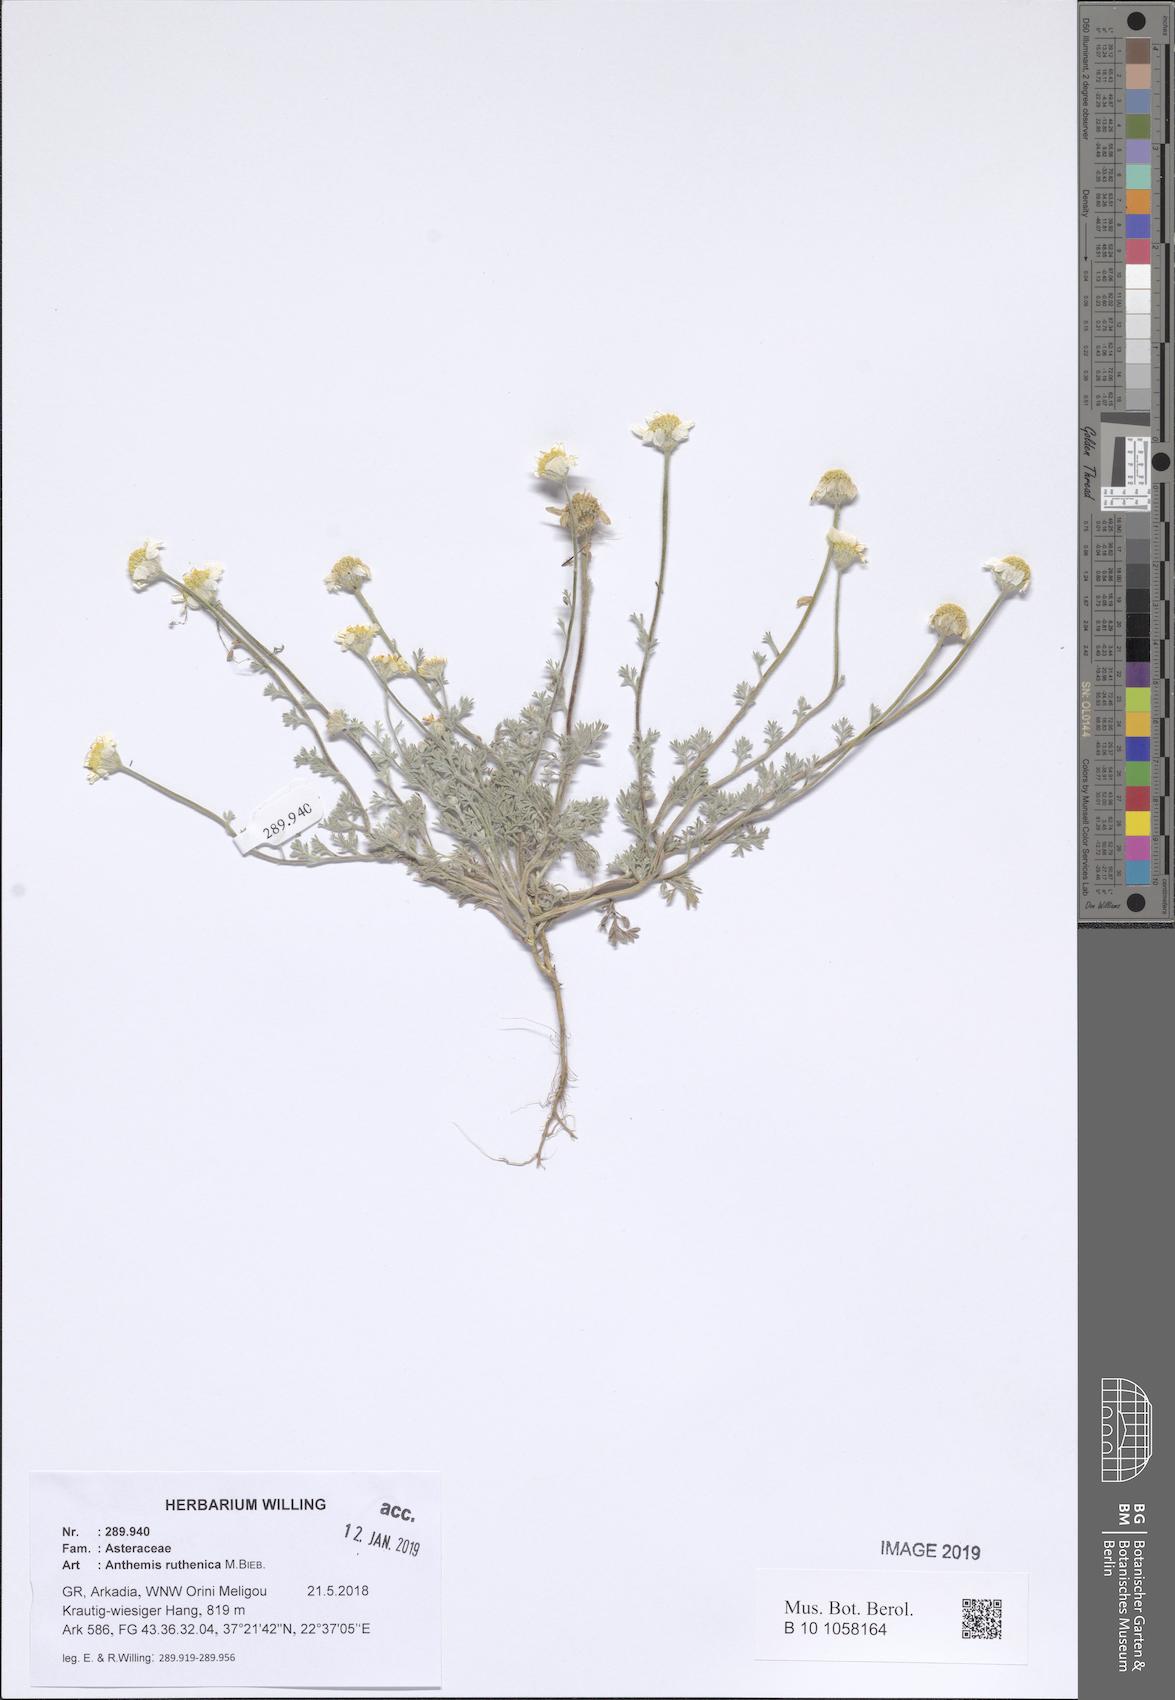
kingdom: Plantae
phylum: Tracheophyta
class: Magnoliopsida
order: Asterales
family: Asteraceae
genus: Anthemis
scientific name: Anthemis ruthenica
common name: Eastern chamomile
